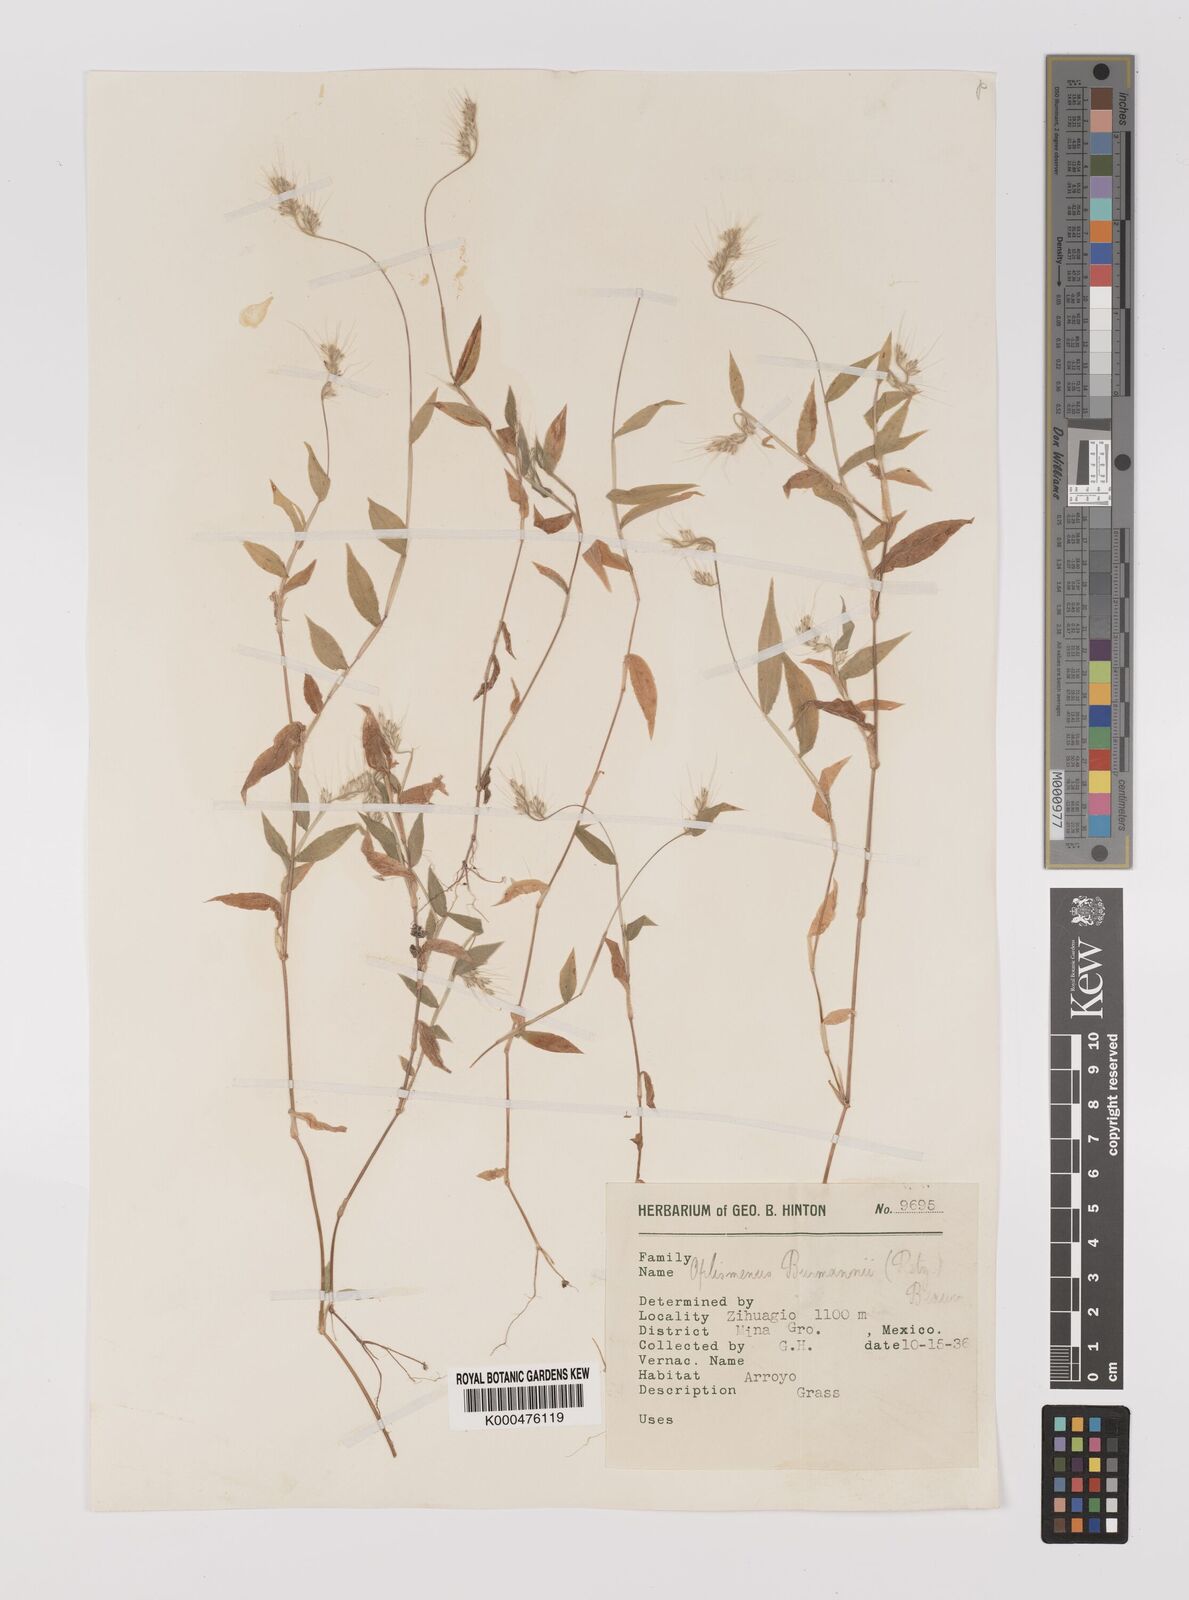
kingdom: Plantae
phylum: Tracheophyta
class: Liliopsida
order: Poales
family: Poaceae
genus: Oplismenus
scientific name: Oplismenus burmanni
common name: Burmann's basketgrass
